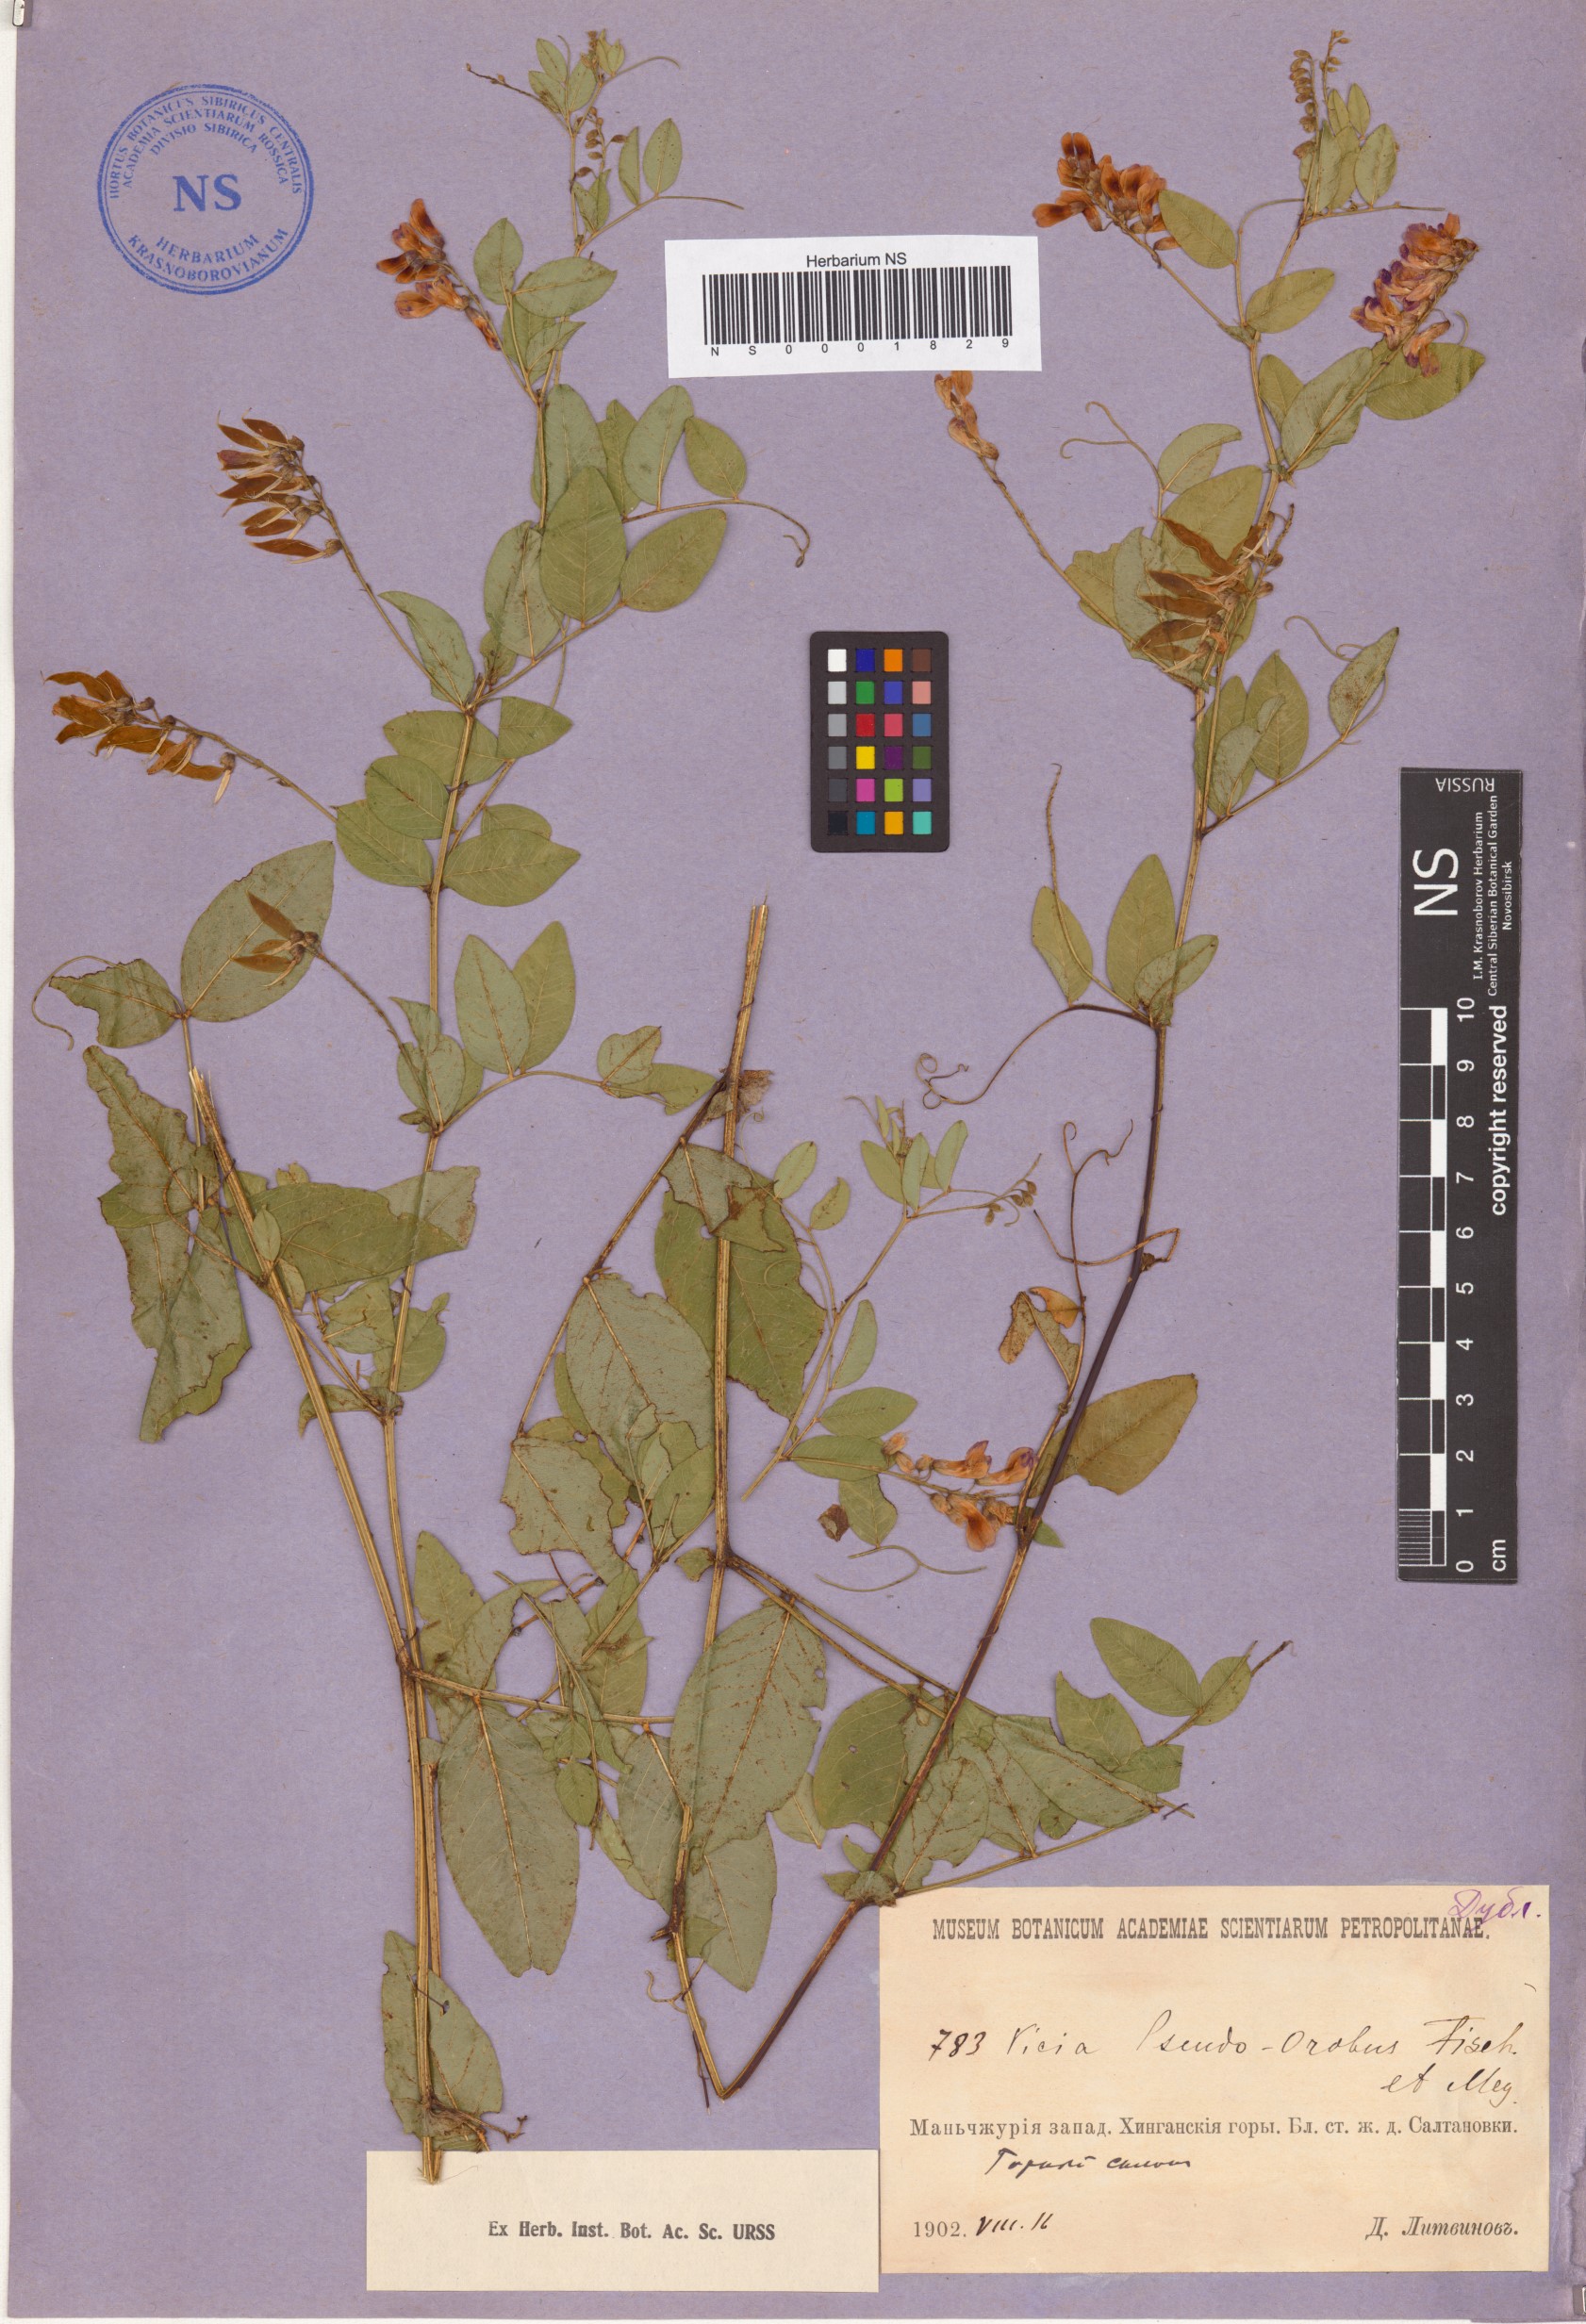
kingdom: Plantae
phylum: Tracheophyta
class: Magnoliopsida
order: Fabales
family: Fabaceae
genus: Vicia
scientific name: Vicia pseudo-orobus
